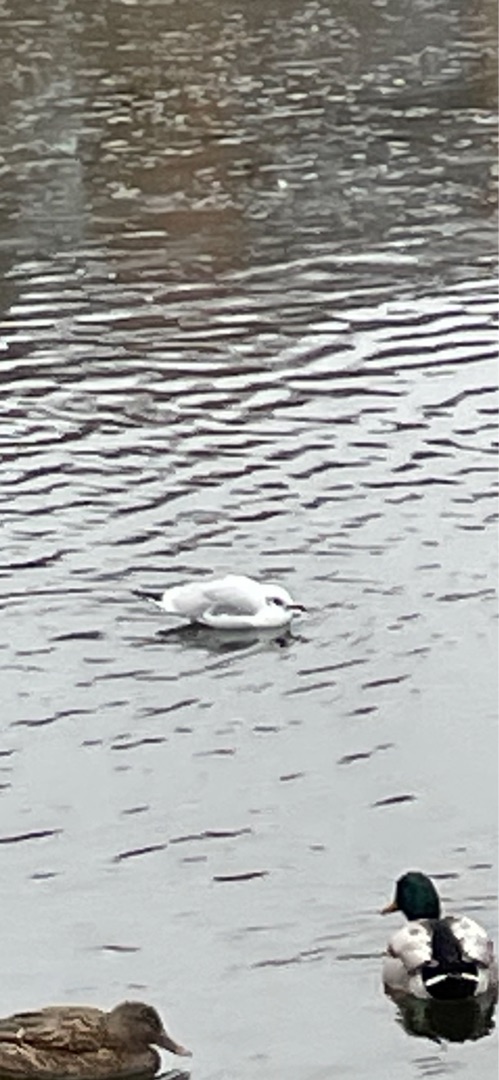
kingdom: Animalia
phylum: Chordata
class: Aves
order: Charadriiformes
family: Laridae
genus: Chroicocephalus
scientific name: Chroicocephalus ridibundus
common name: Hættemåge
